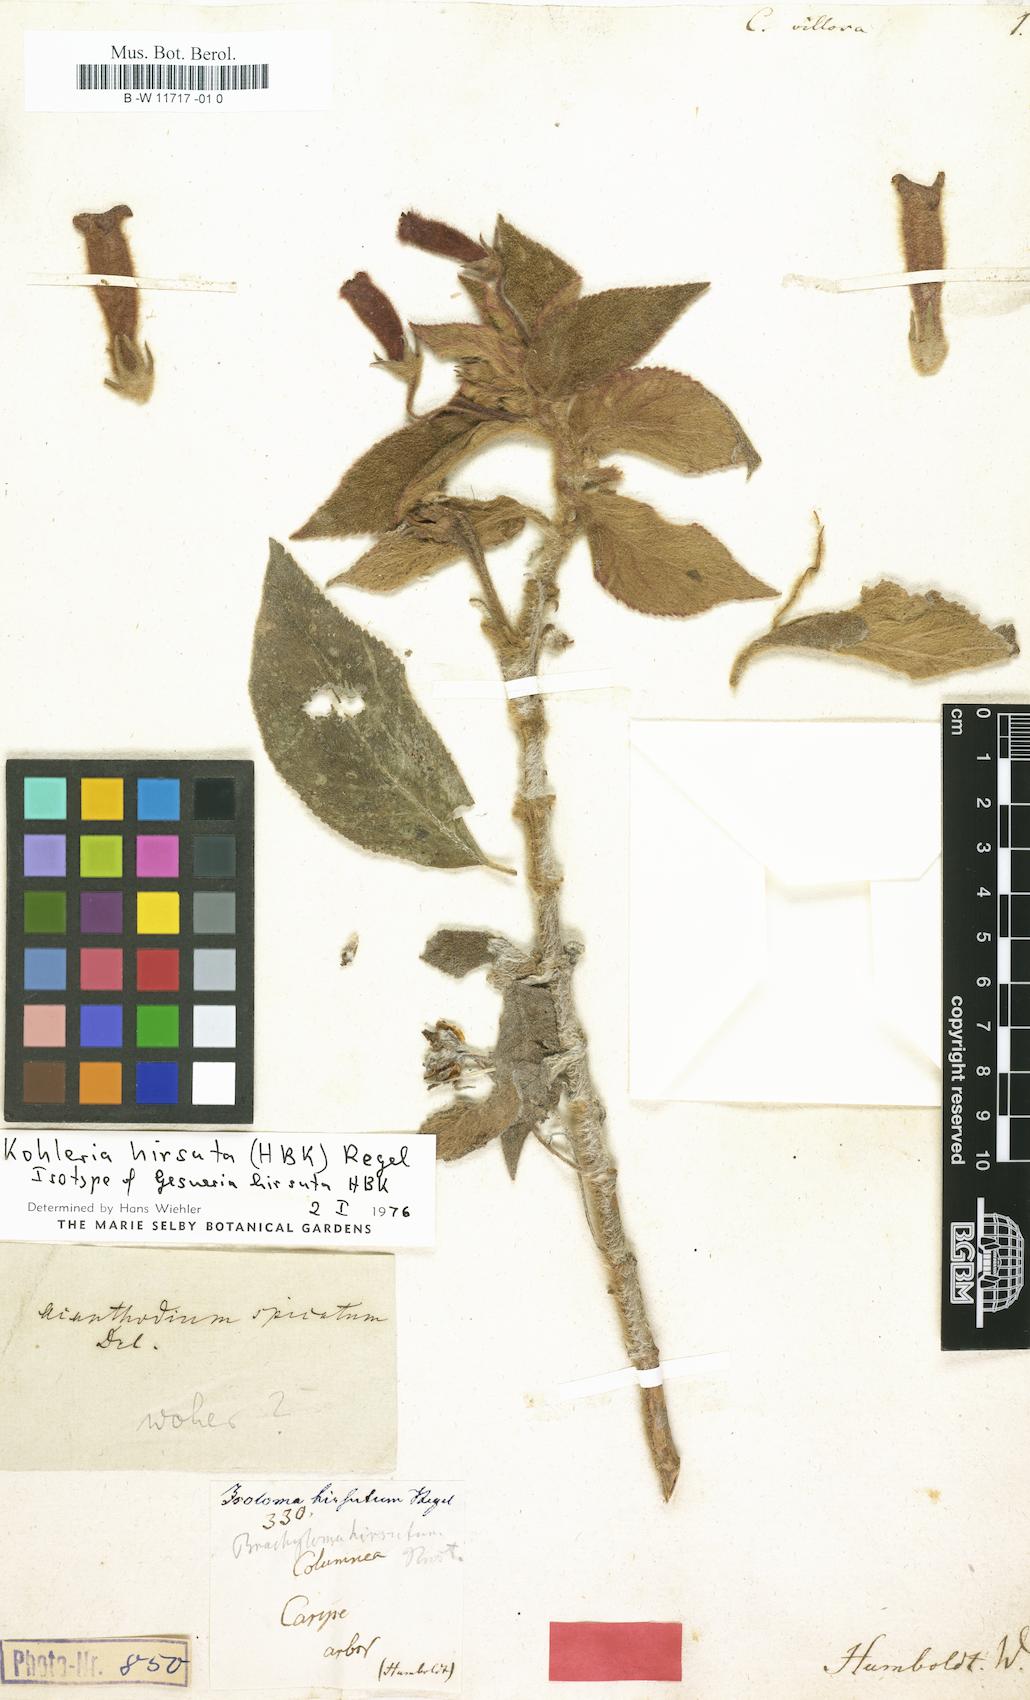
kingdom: Plantae
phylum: Tracheophyta
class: Magnoliopsida
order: Lamiales
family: Gesneriaceae
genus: Columnea
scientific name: Columnea scandens
